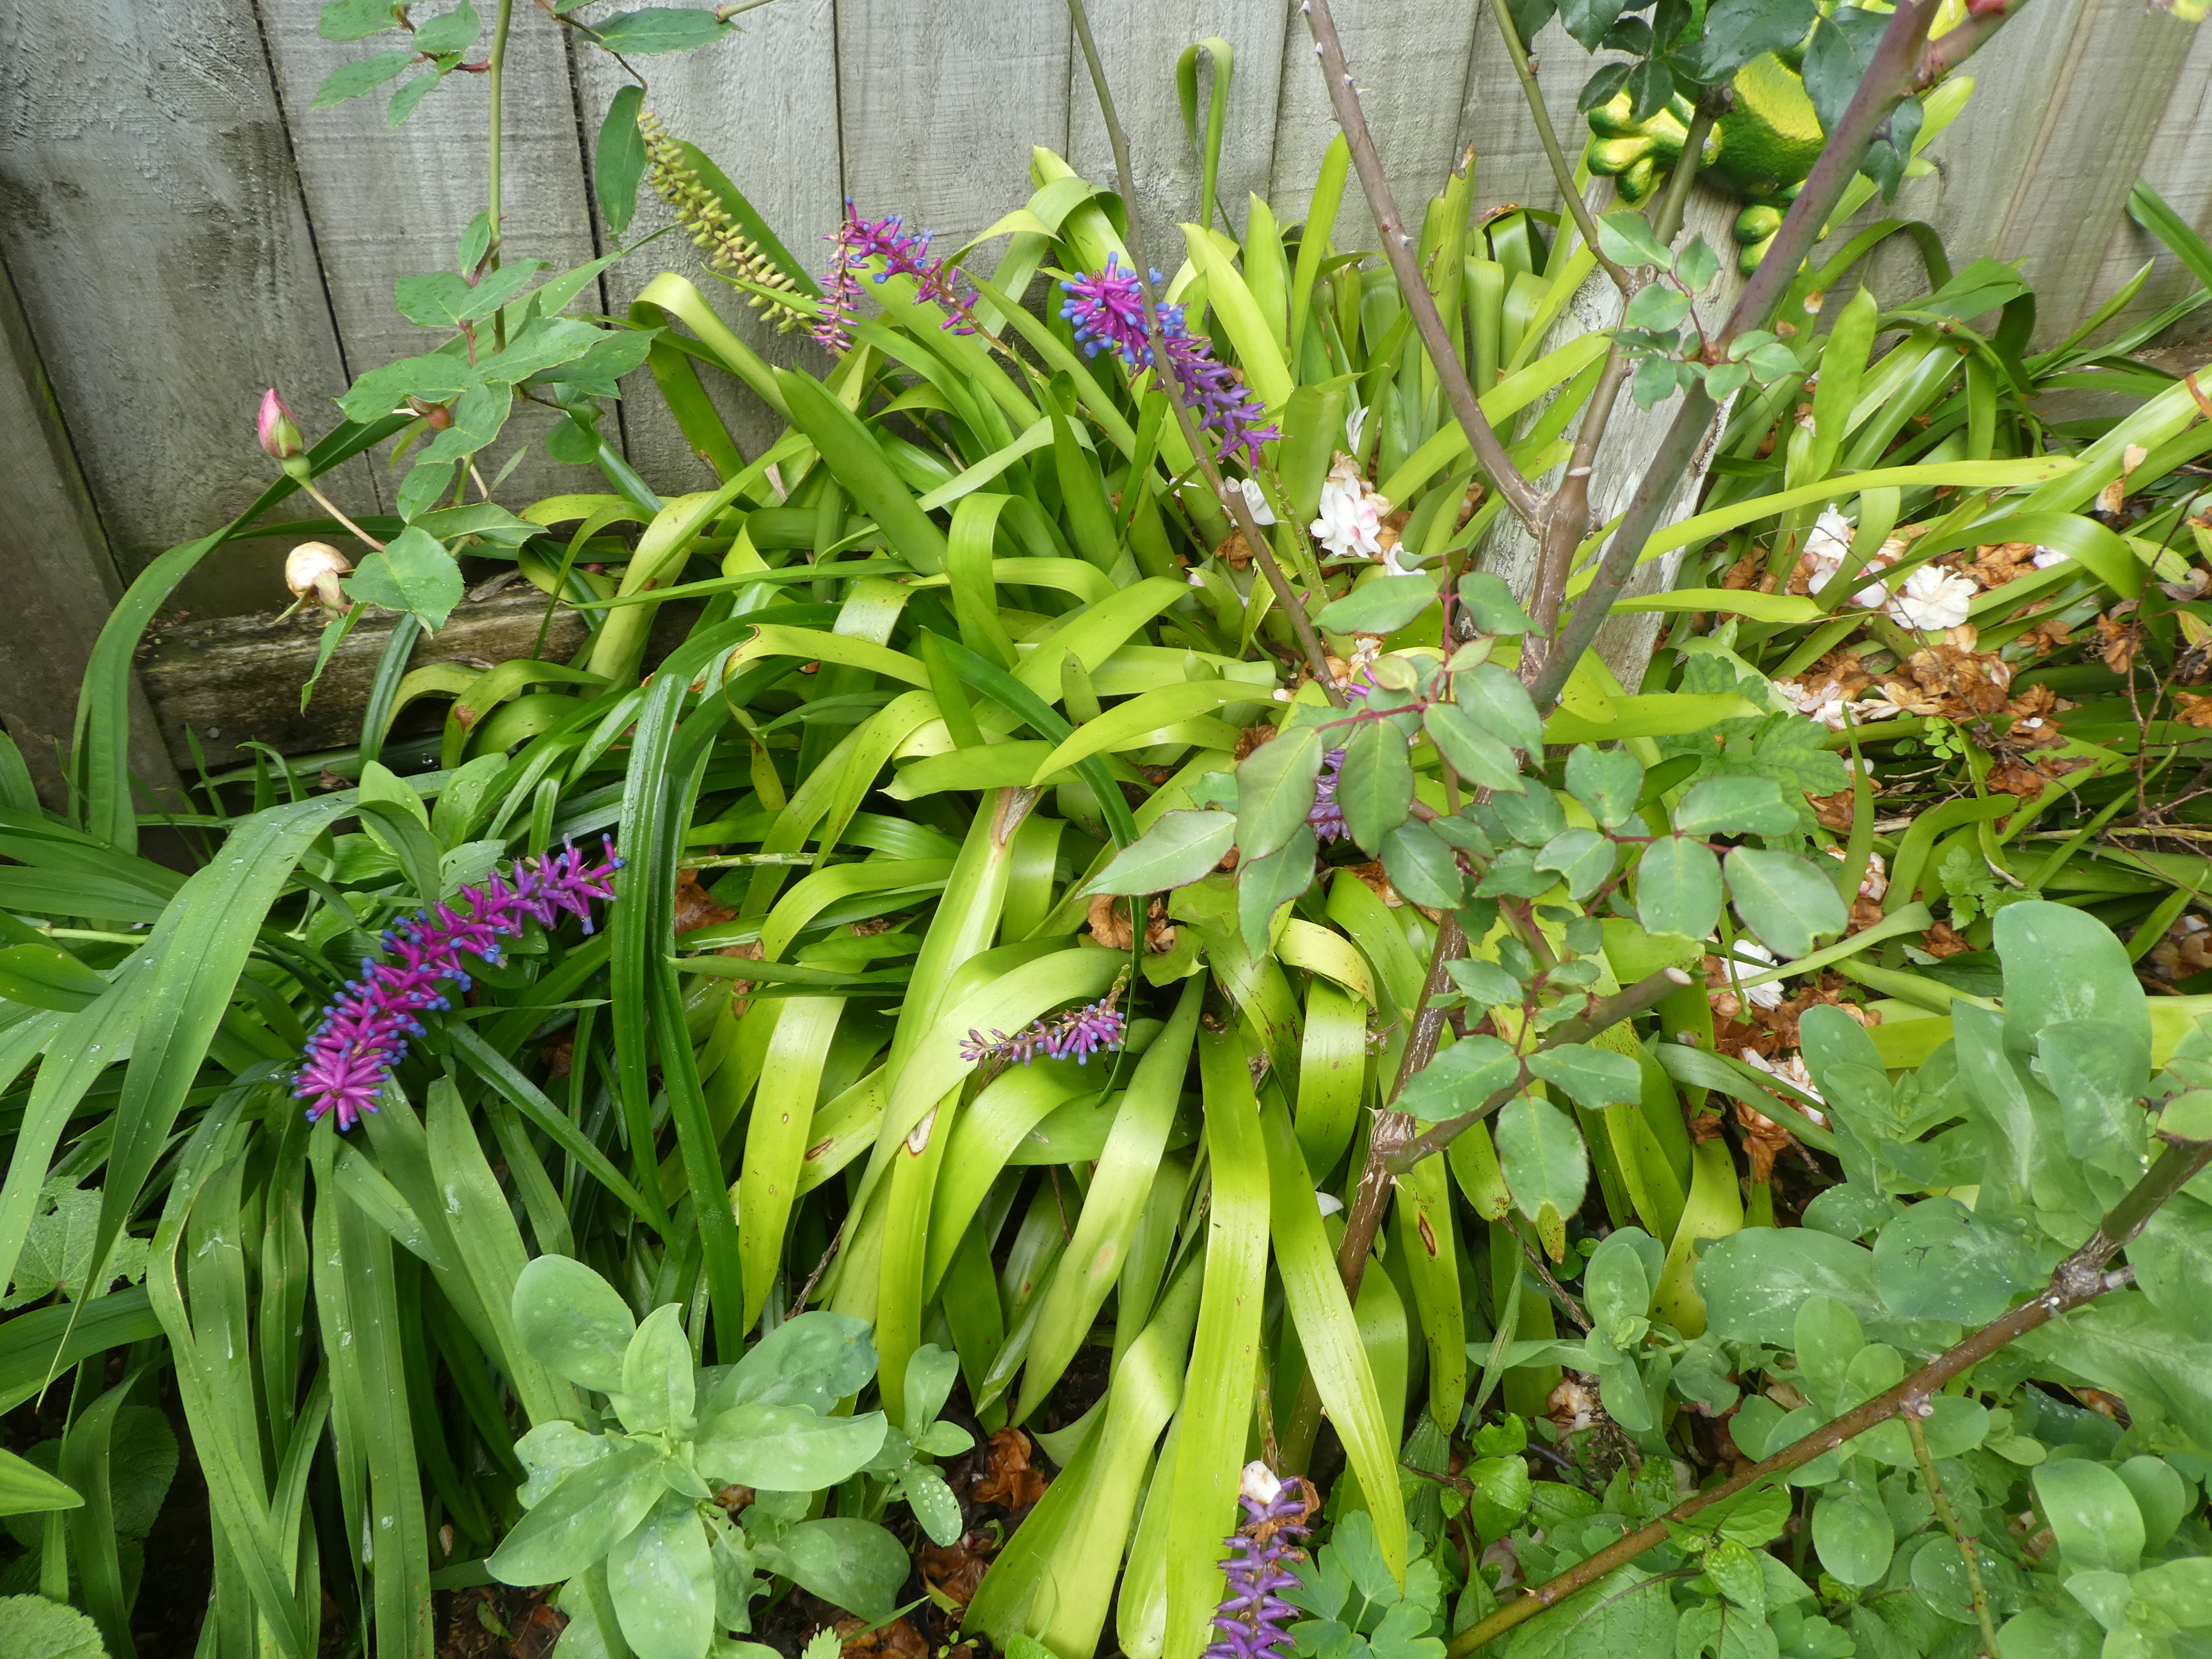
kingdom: Plantae
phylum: Tracheophyta
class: Liliopsida
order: Poales
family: Bromeliaceae
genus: Aechmea
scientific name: Aechmea gamosepala
